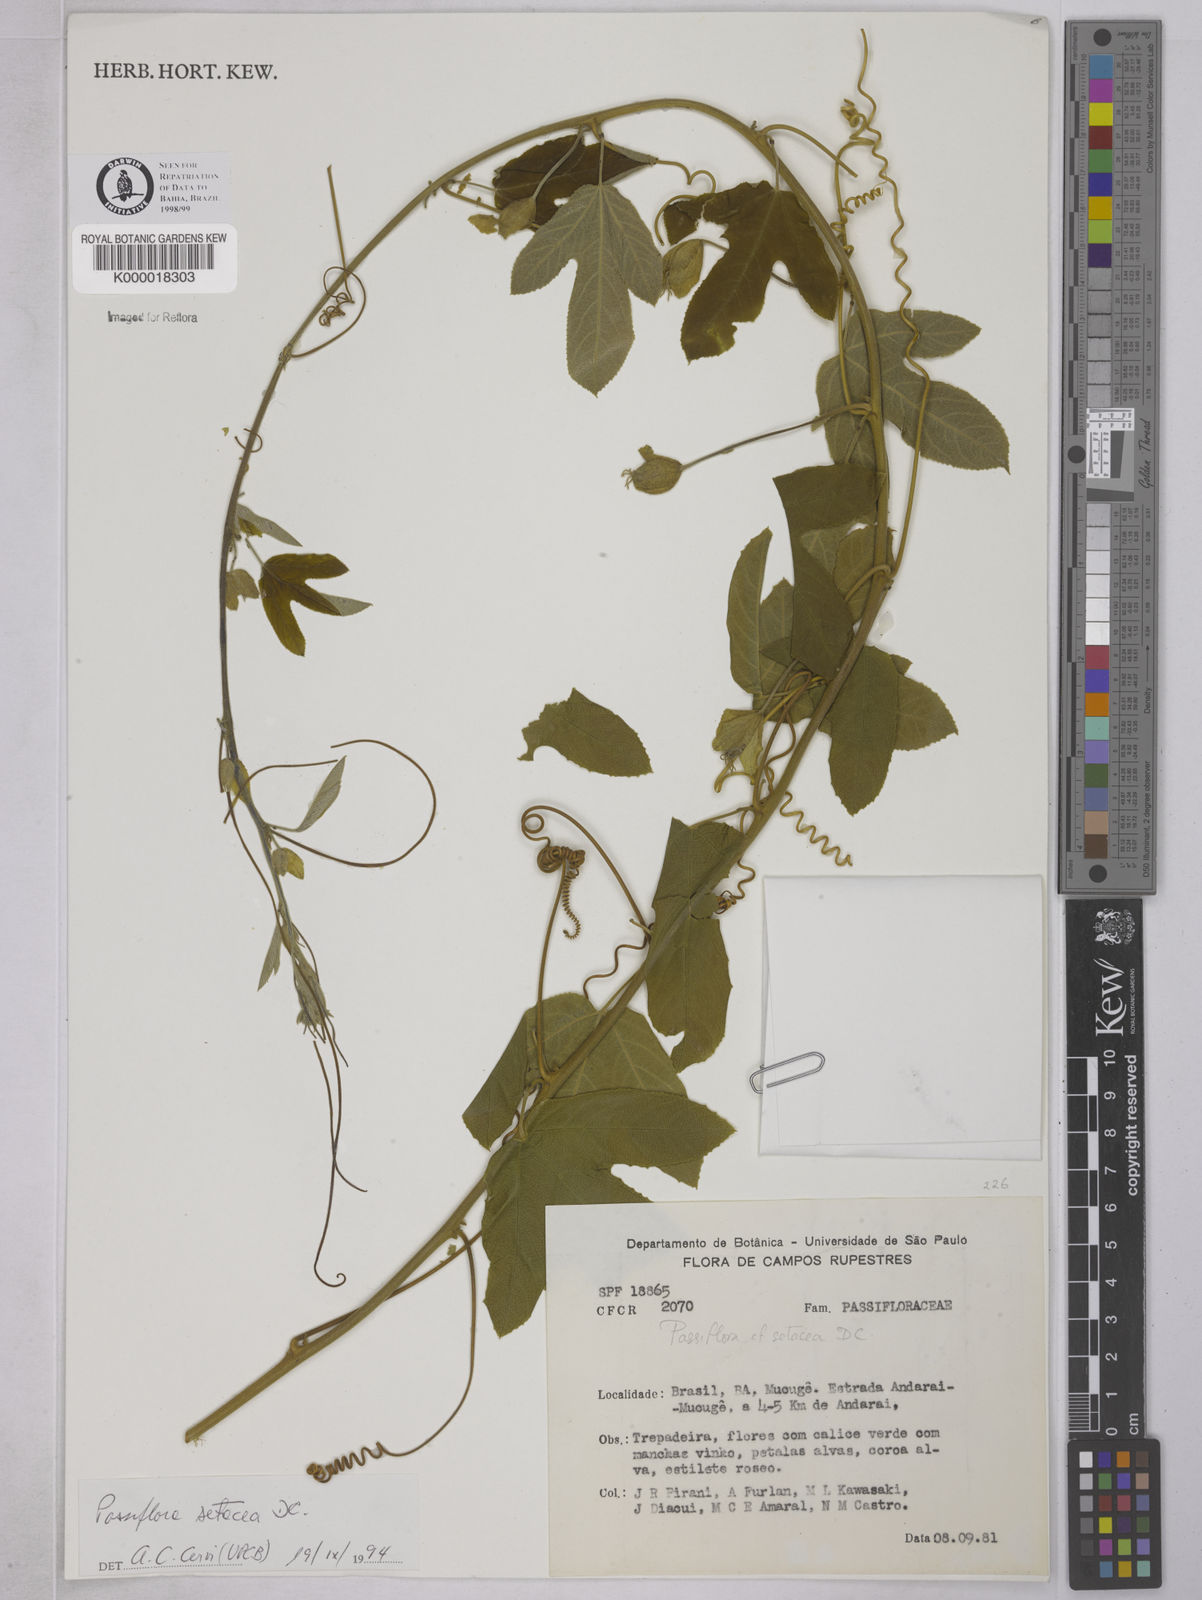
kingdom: Plantae
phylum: Tracheophyta
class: Magnoliopsida
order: Malpighiales
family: Passifloraceae
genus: Passiflora
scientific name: Passiflora setacea
